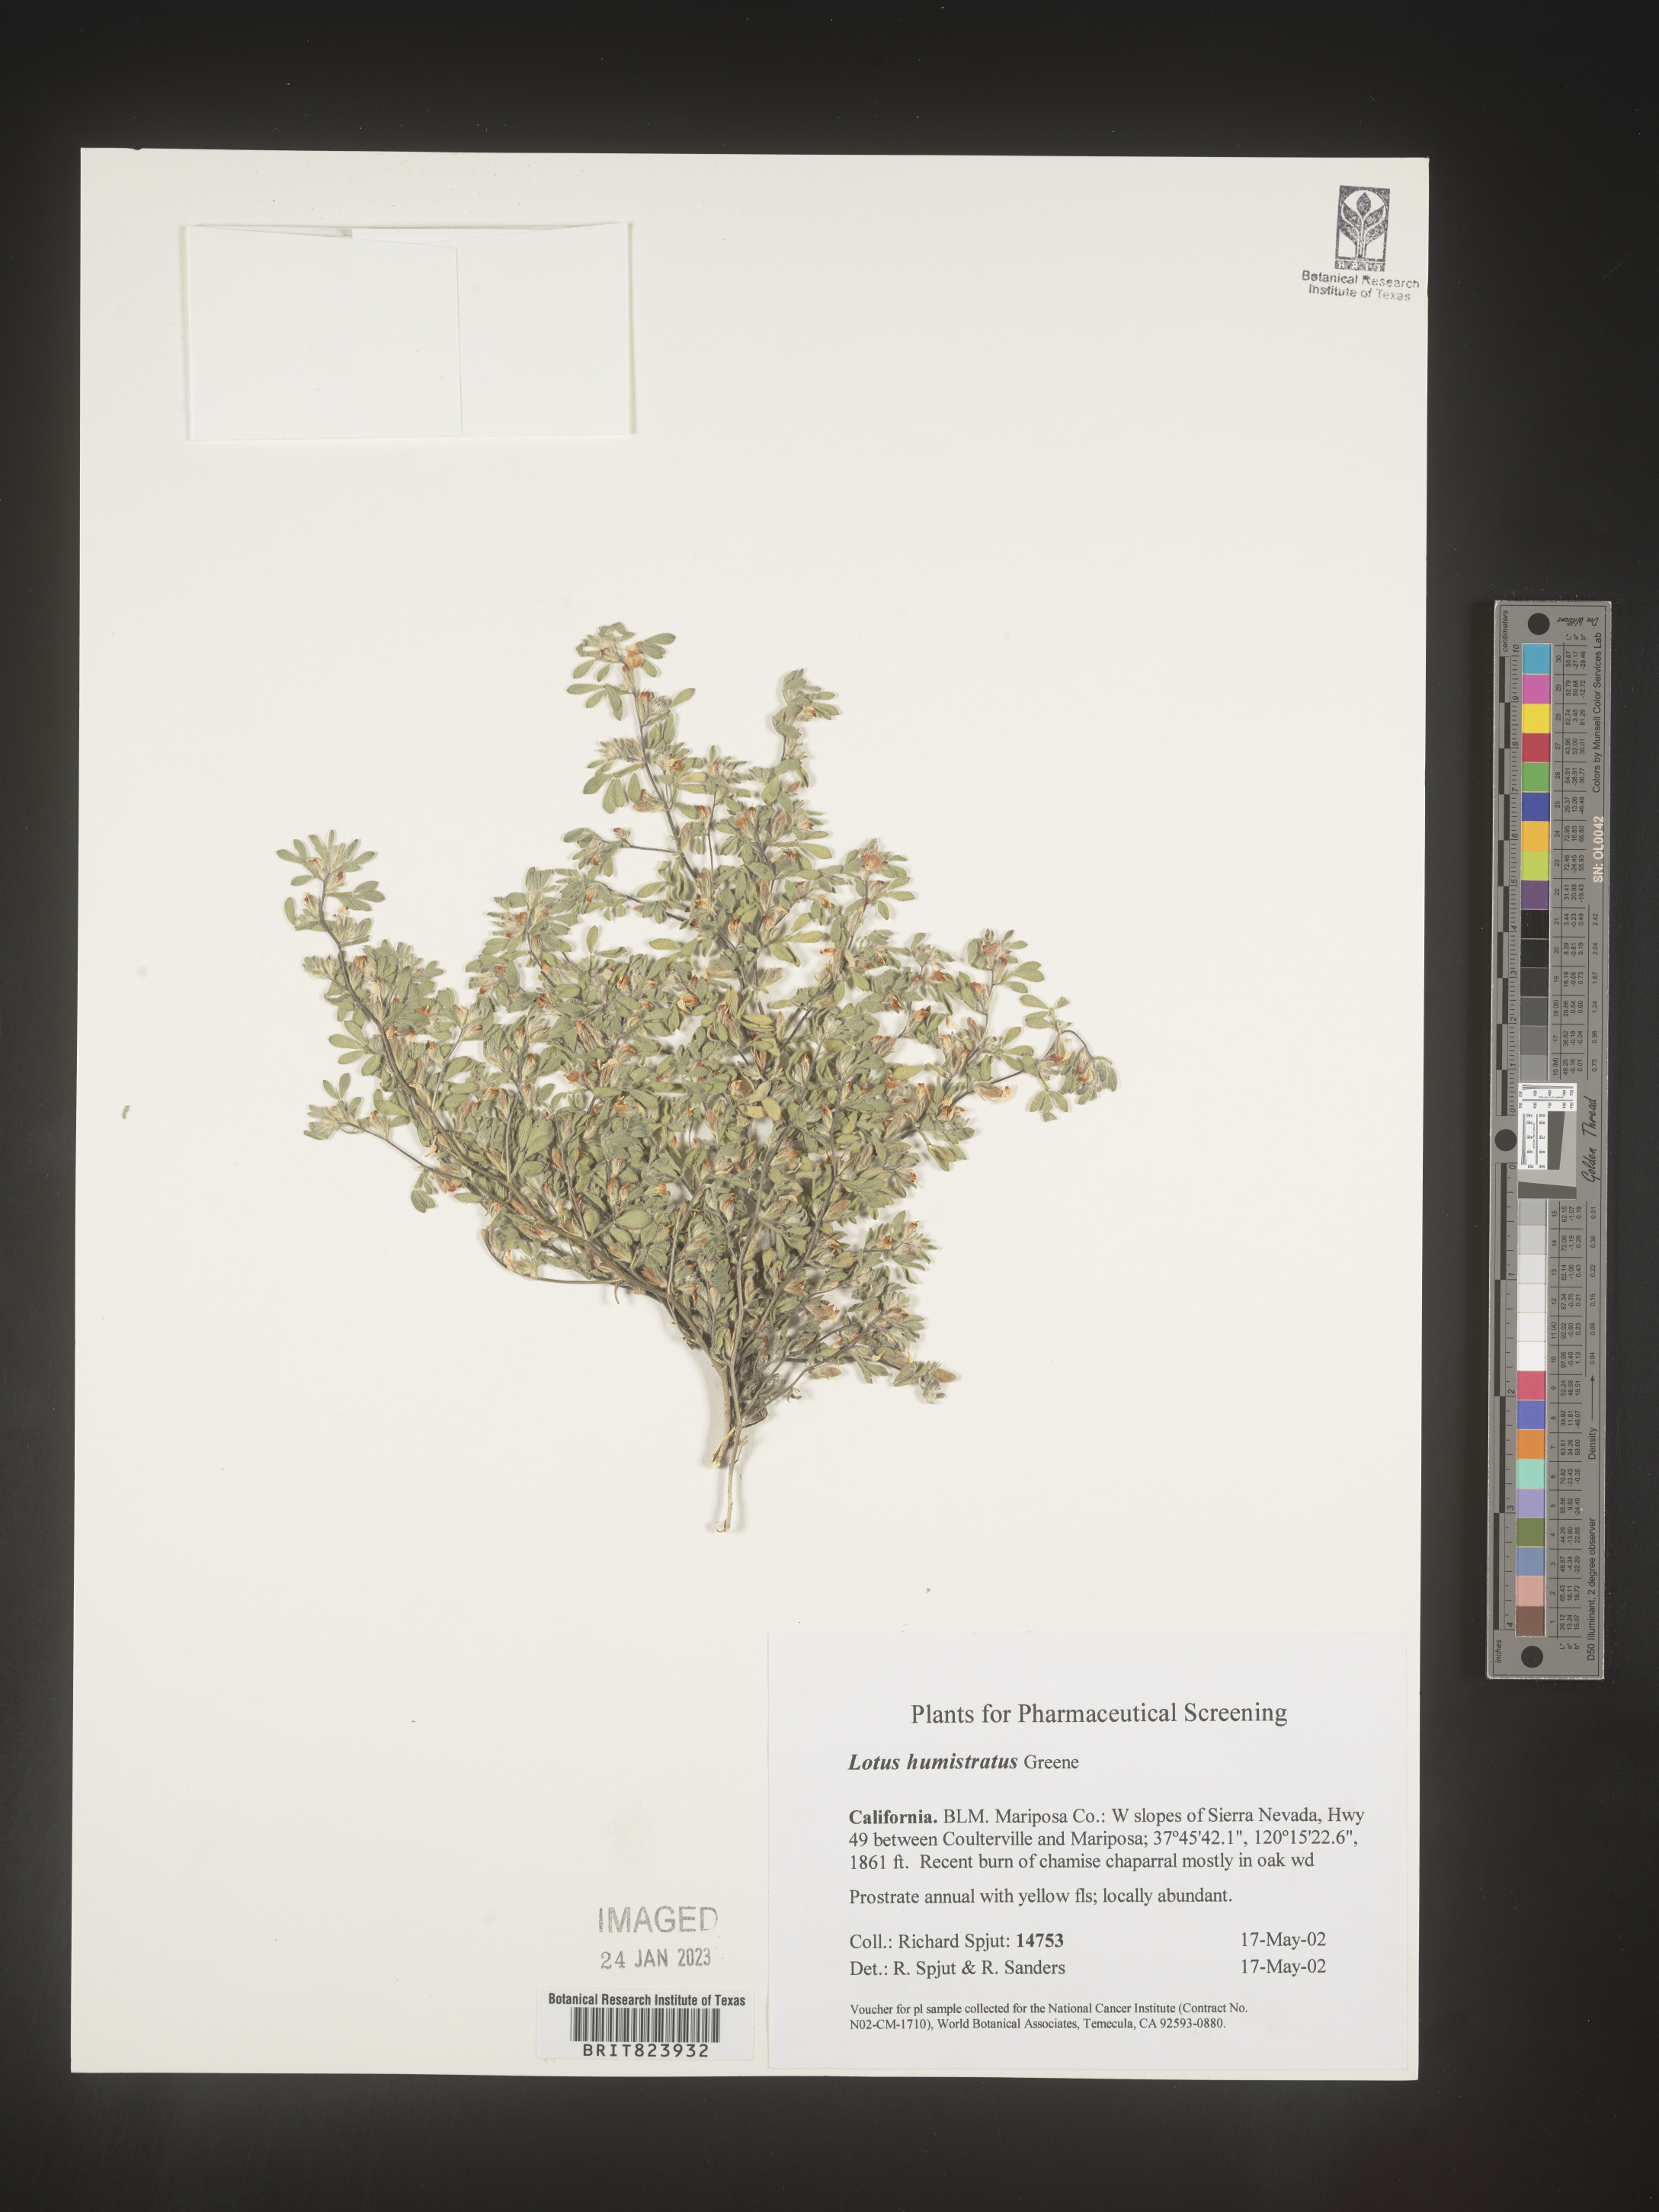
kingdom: Plantae
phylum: Tracheophyta
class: Magnoliopsida
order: Fabales
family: Fabaceae
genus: Acmispon
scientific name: Acmispon brachycarpus
